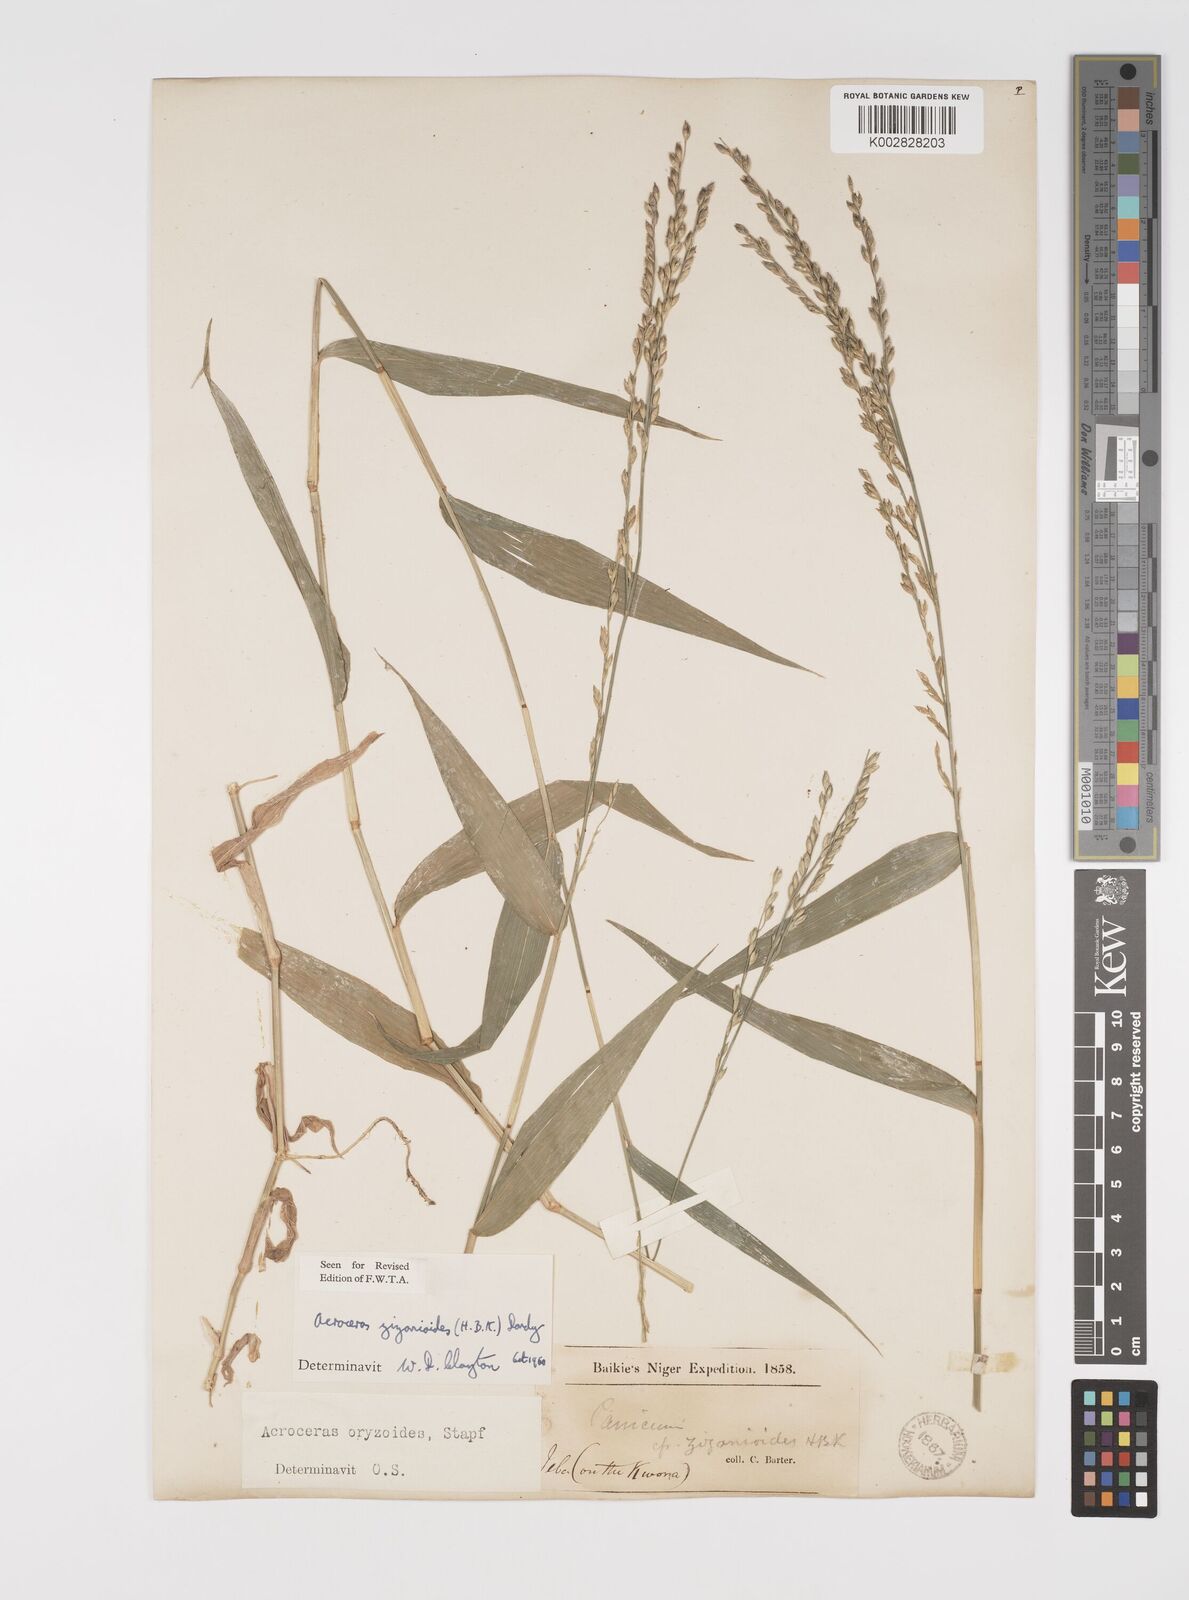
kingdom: Plantae
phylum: Tracheophyta
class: Liliopsida
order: Poales
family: Poaceae
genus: Acroceras
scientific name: Acroceras zizanioides
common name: Oat grass
